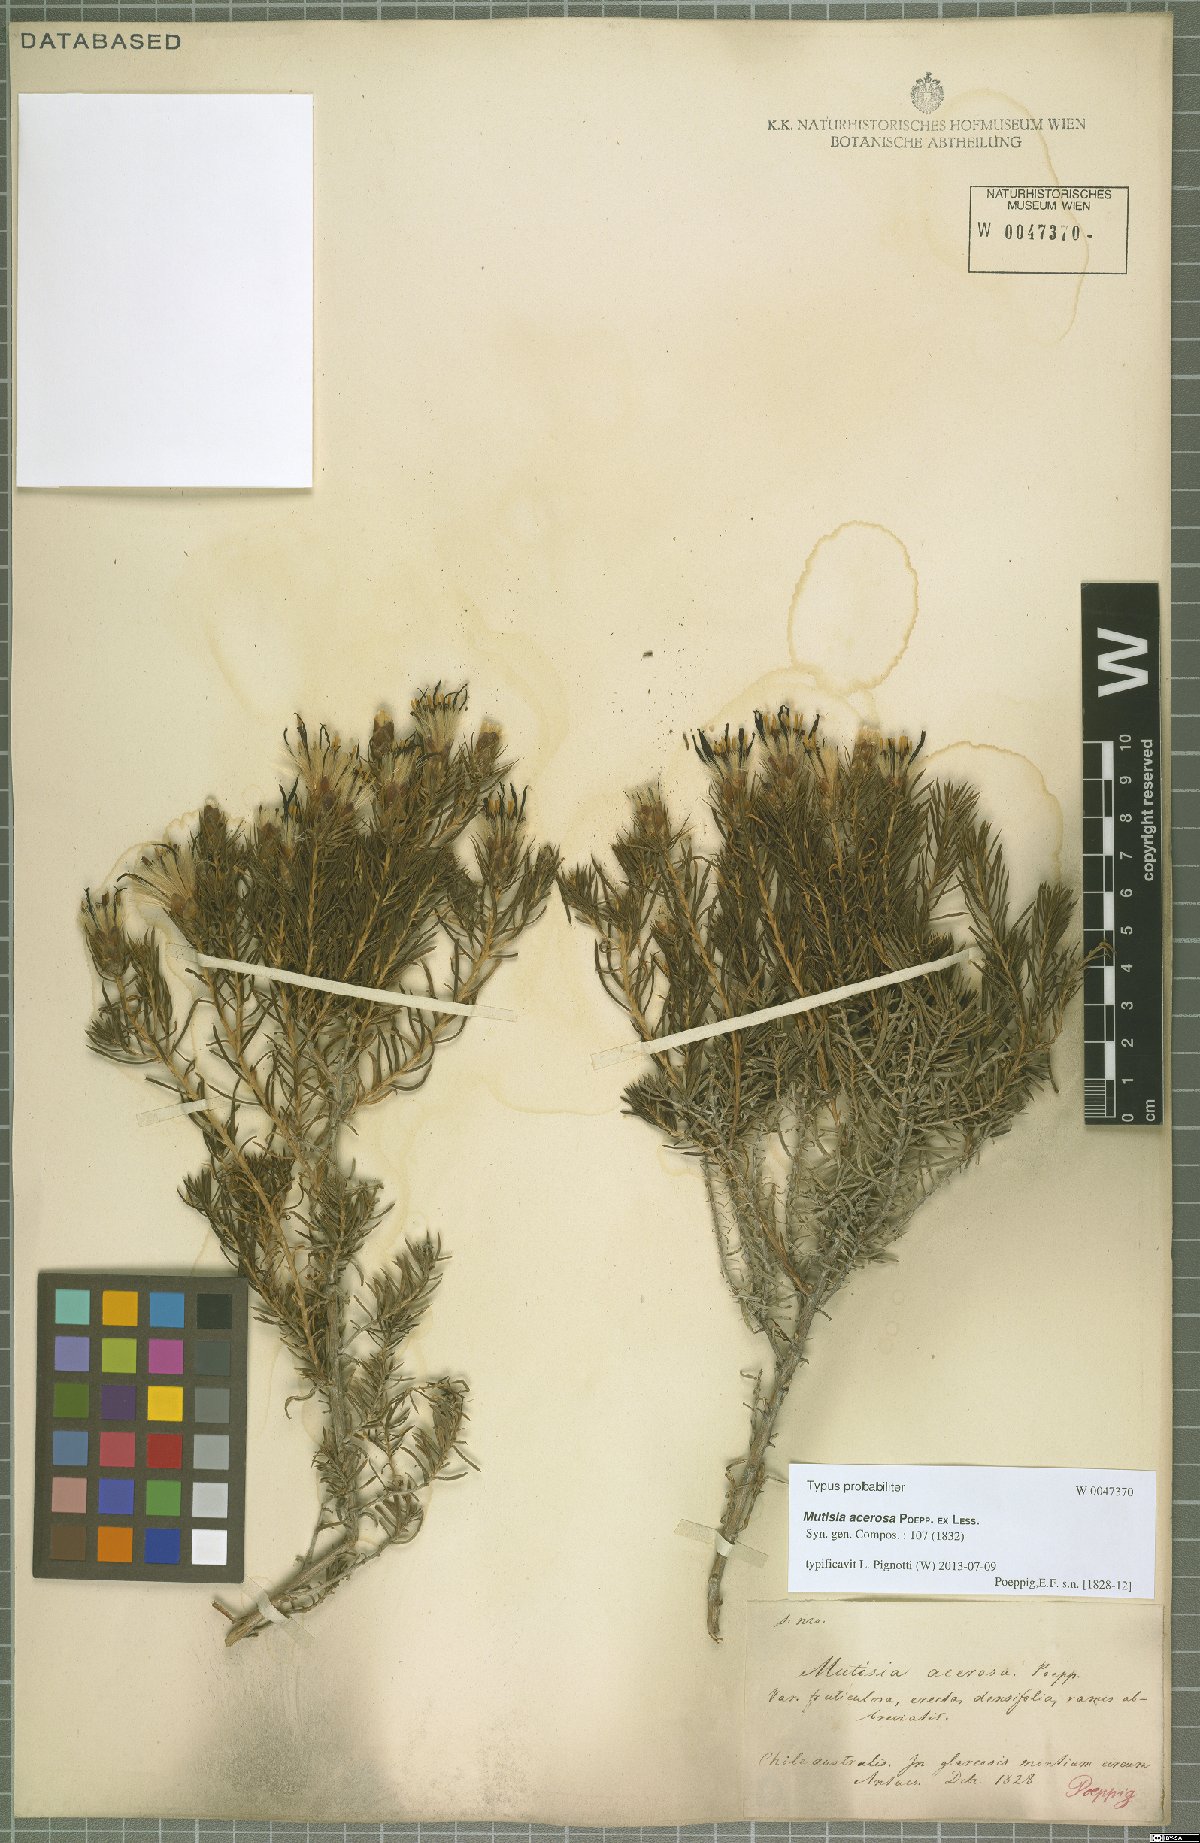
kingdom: Plantae
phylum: Tracheophyta
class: Magnoliopsida
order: Asterales
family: Asteraceae
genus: Mutisia
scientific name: Mutisia acerosa
